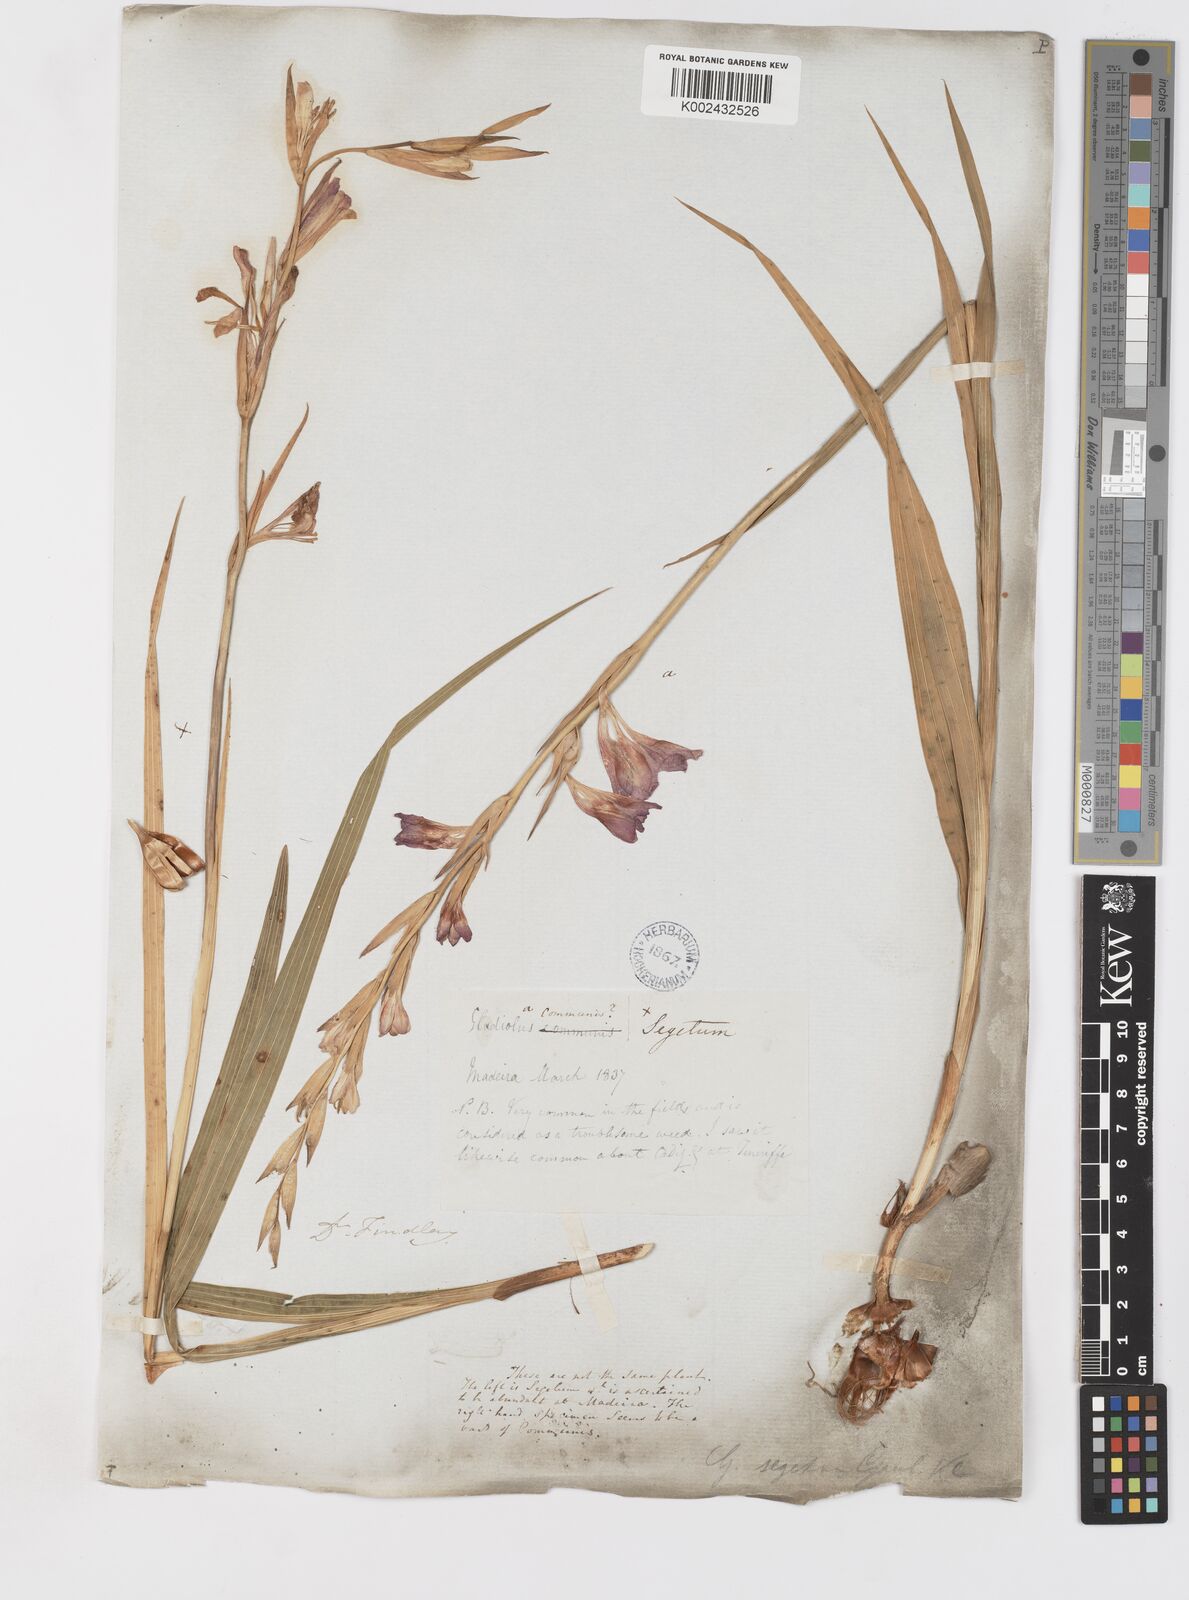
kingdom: Plantae
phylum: Tracheophyta
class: Liliopsida
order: Asparagales
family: Iridaceae
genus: Gladiolus
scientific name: Gladiolus italicus
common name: Field gladiolus
